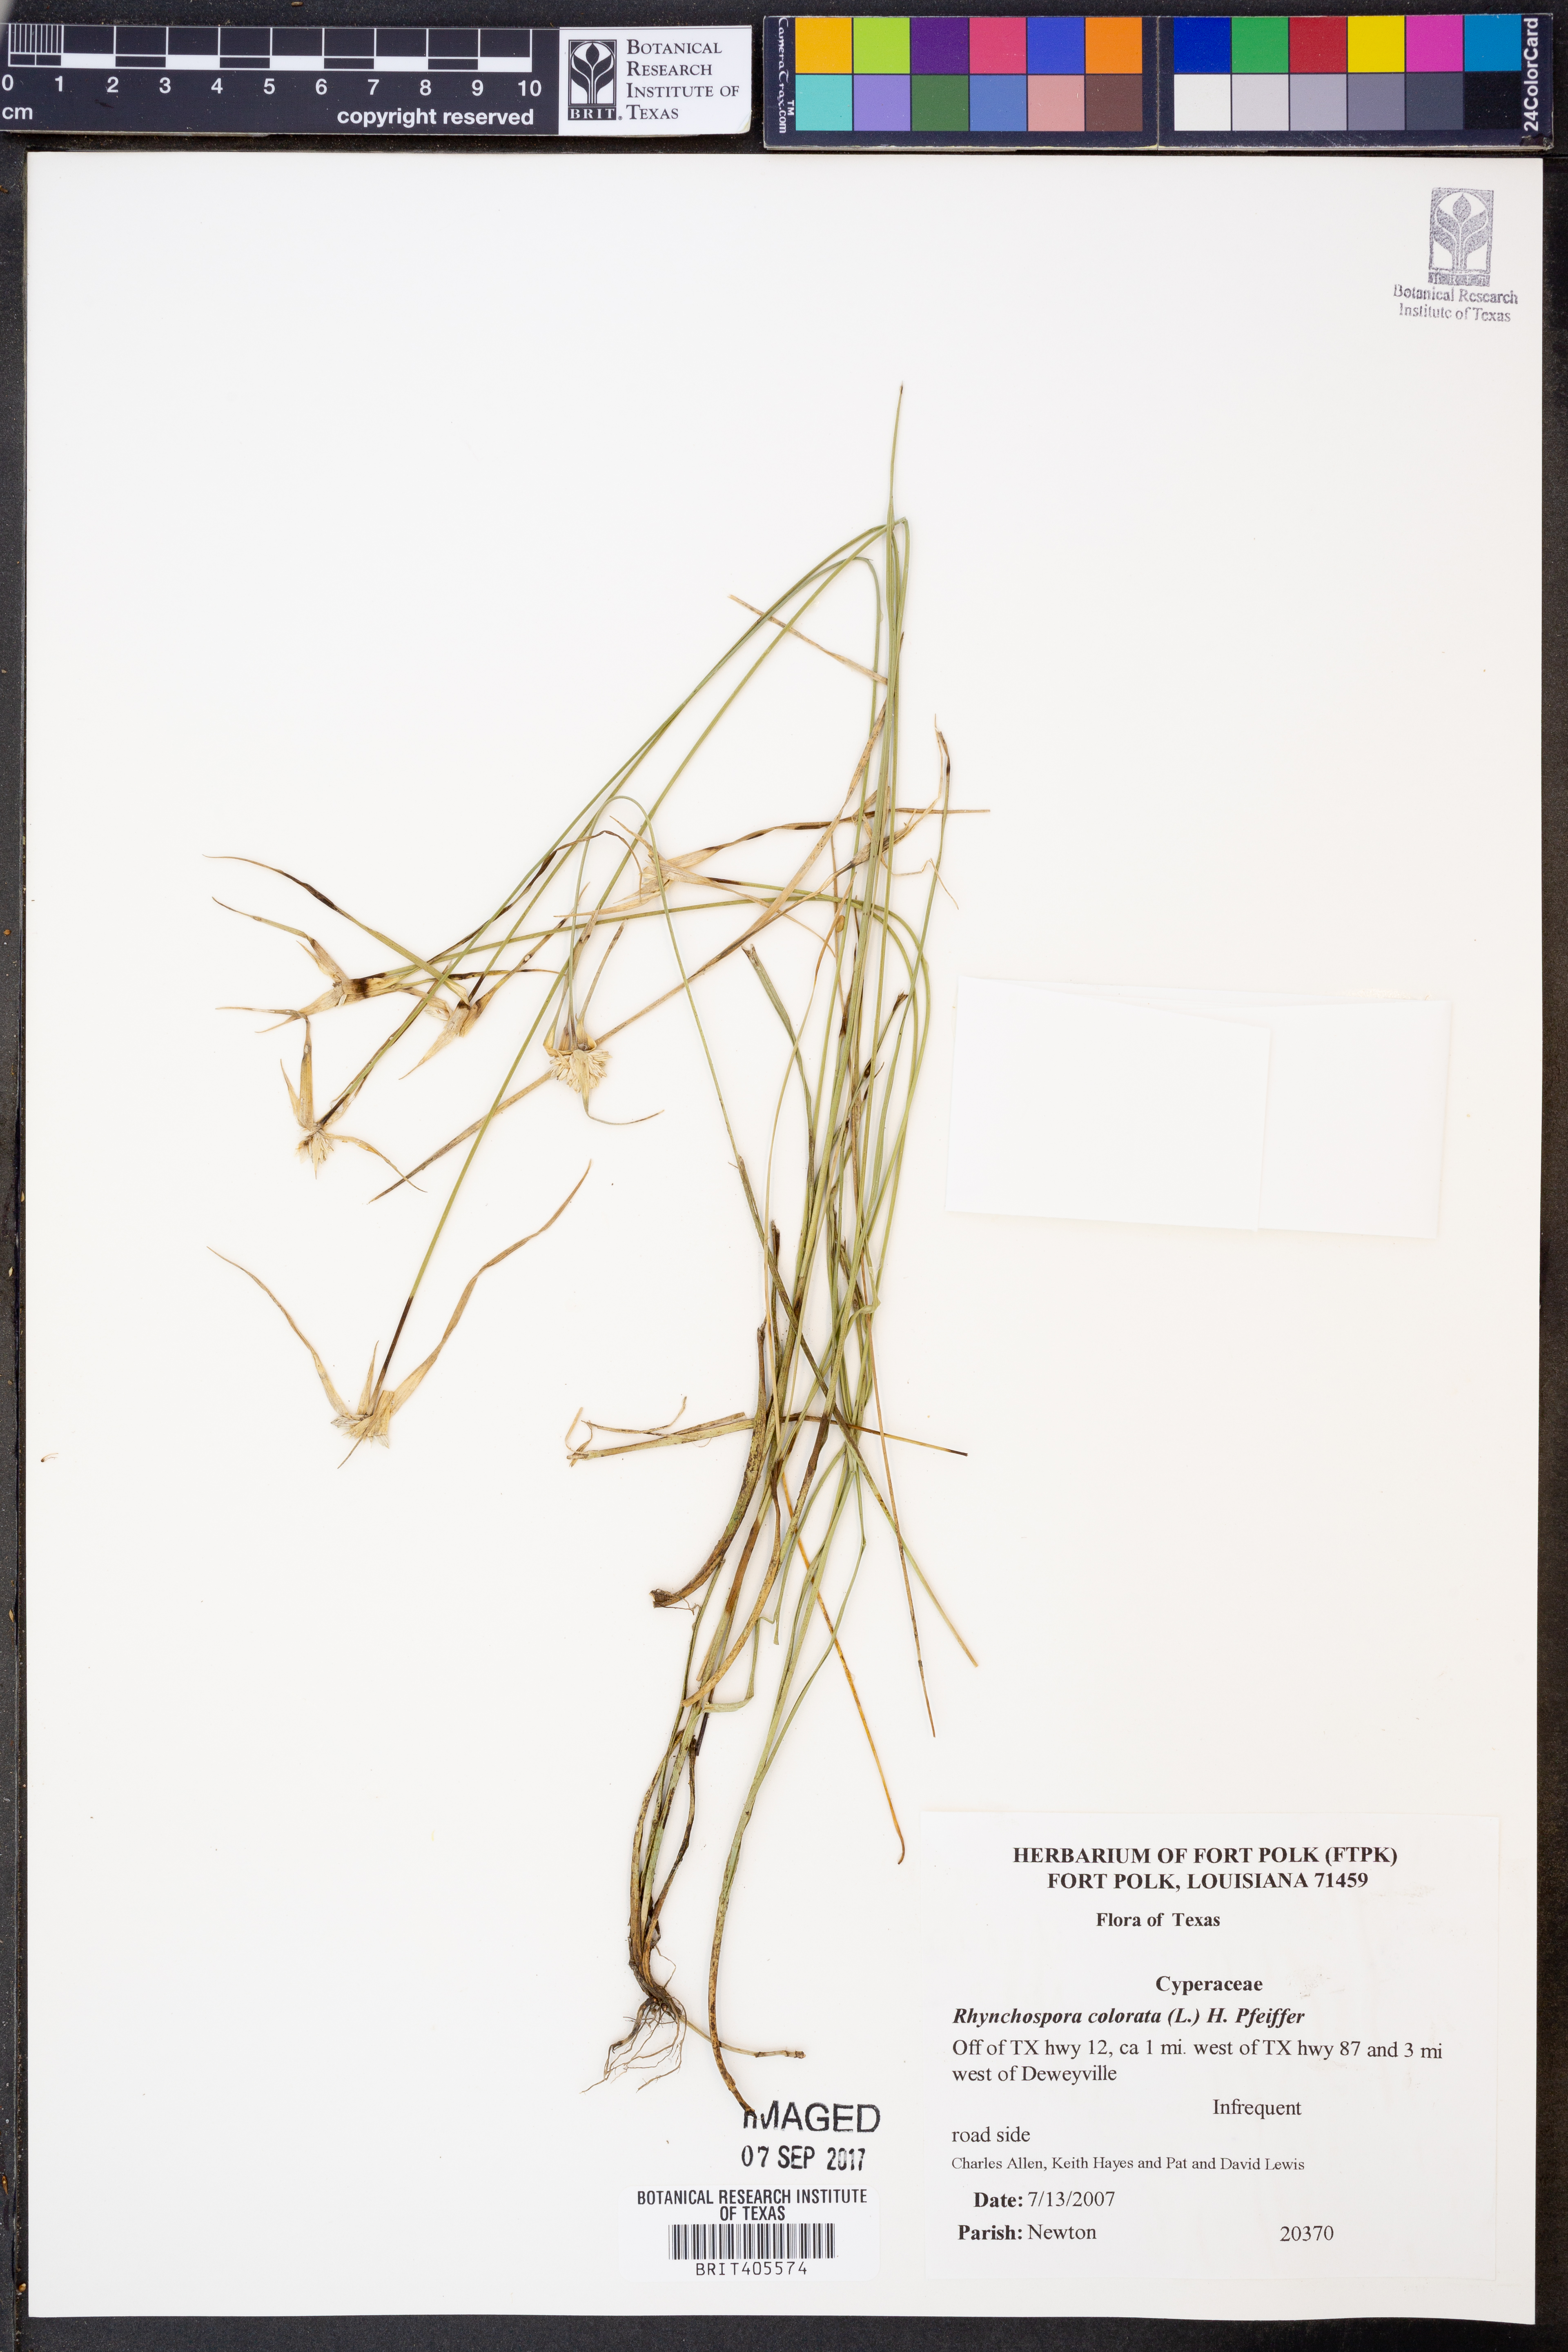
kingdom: Plantae
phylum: Tracheophyta
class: Liliopsida
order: Poales
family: Cyperaceae
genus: Rhynchospora
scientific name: Rhynchospora colorata
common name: Star sedge
